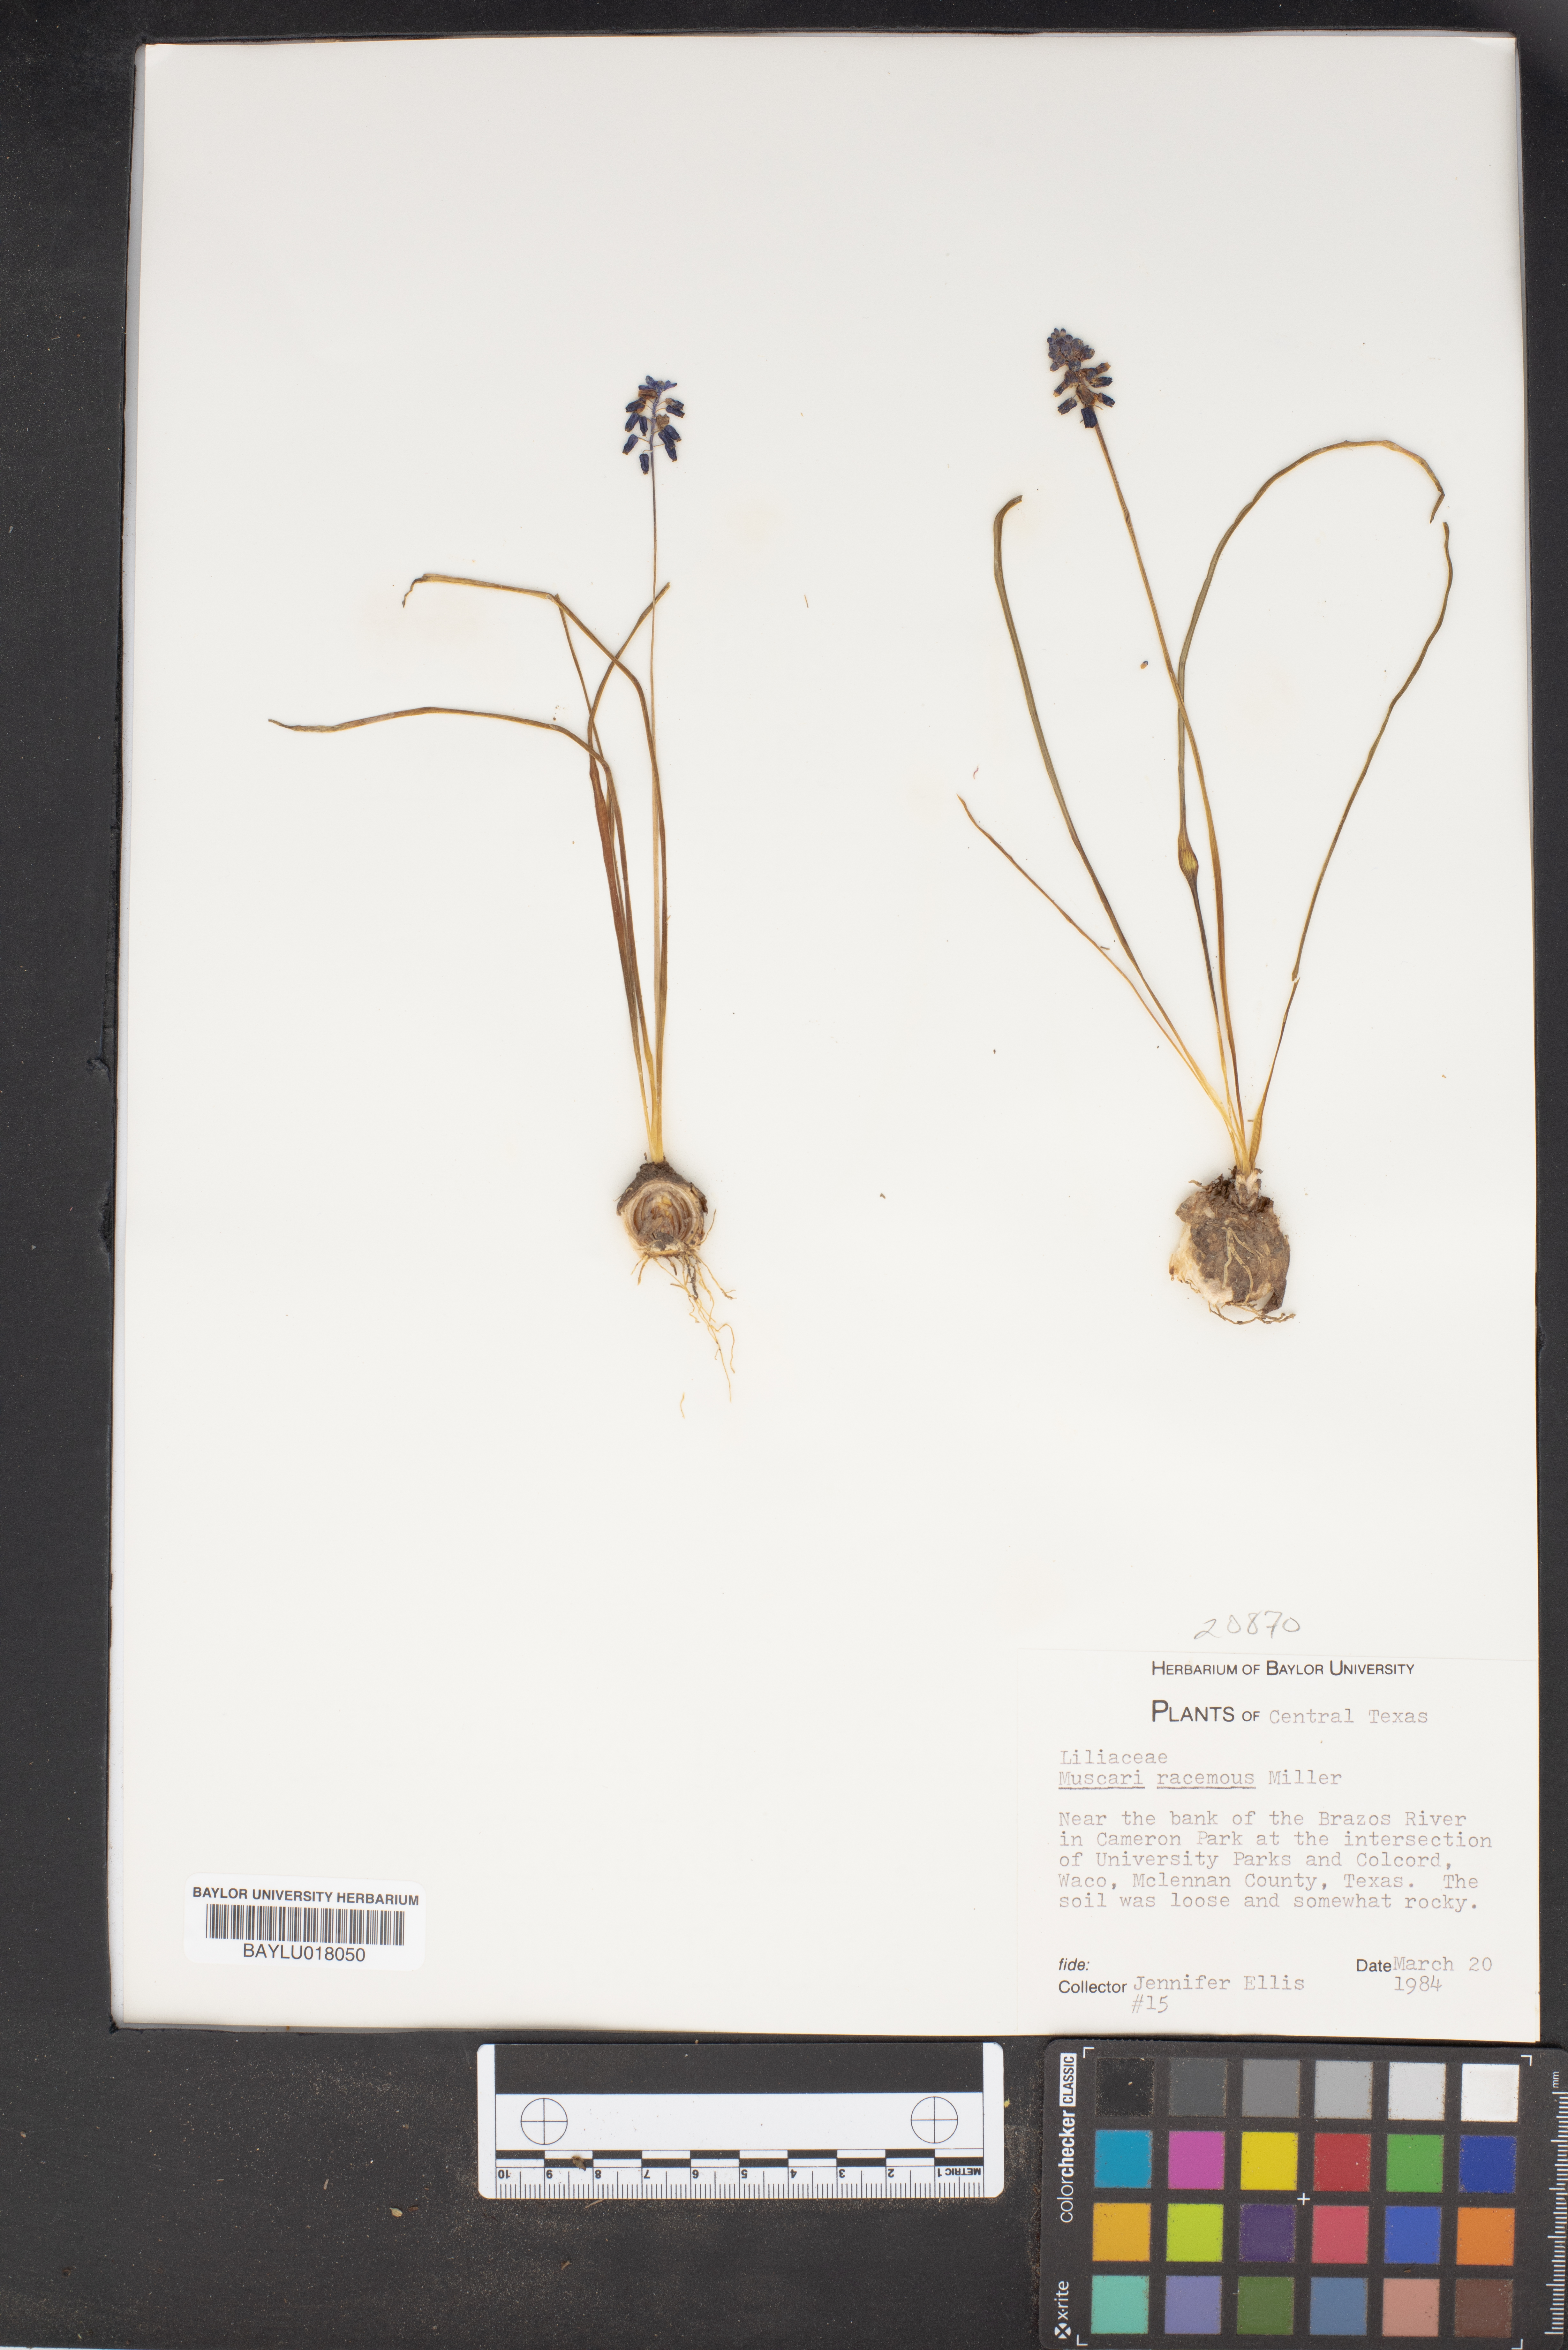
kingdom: Plantae
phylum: Tracheophyta
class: Liliopsida
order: Asparagales
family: Asparagaceae
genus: Muscarimia
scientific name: Muscarimia muscari
